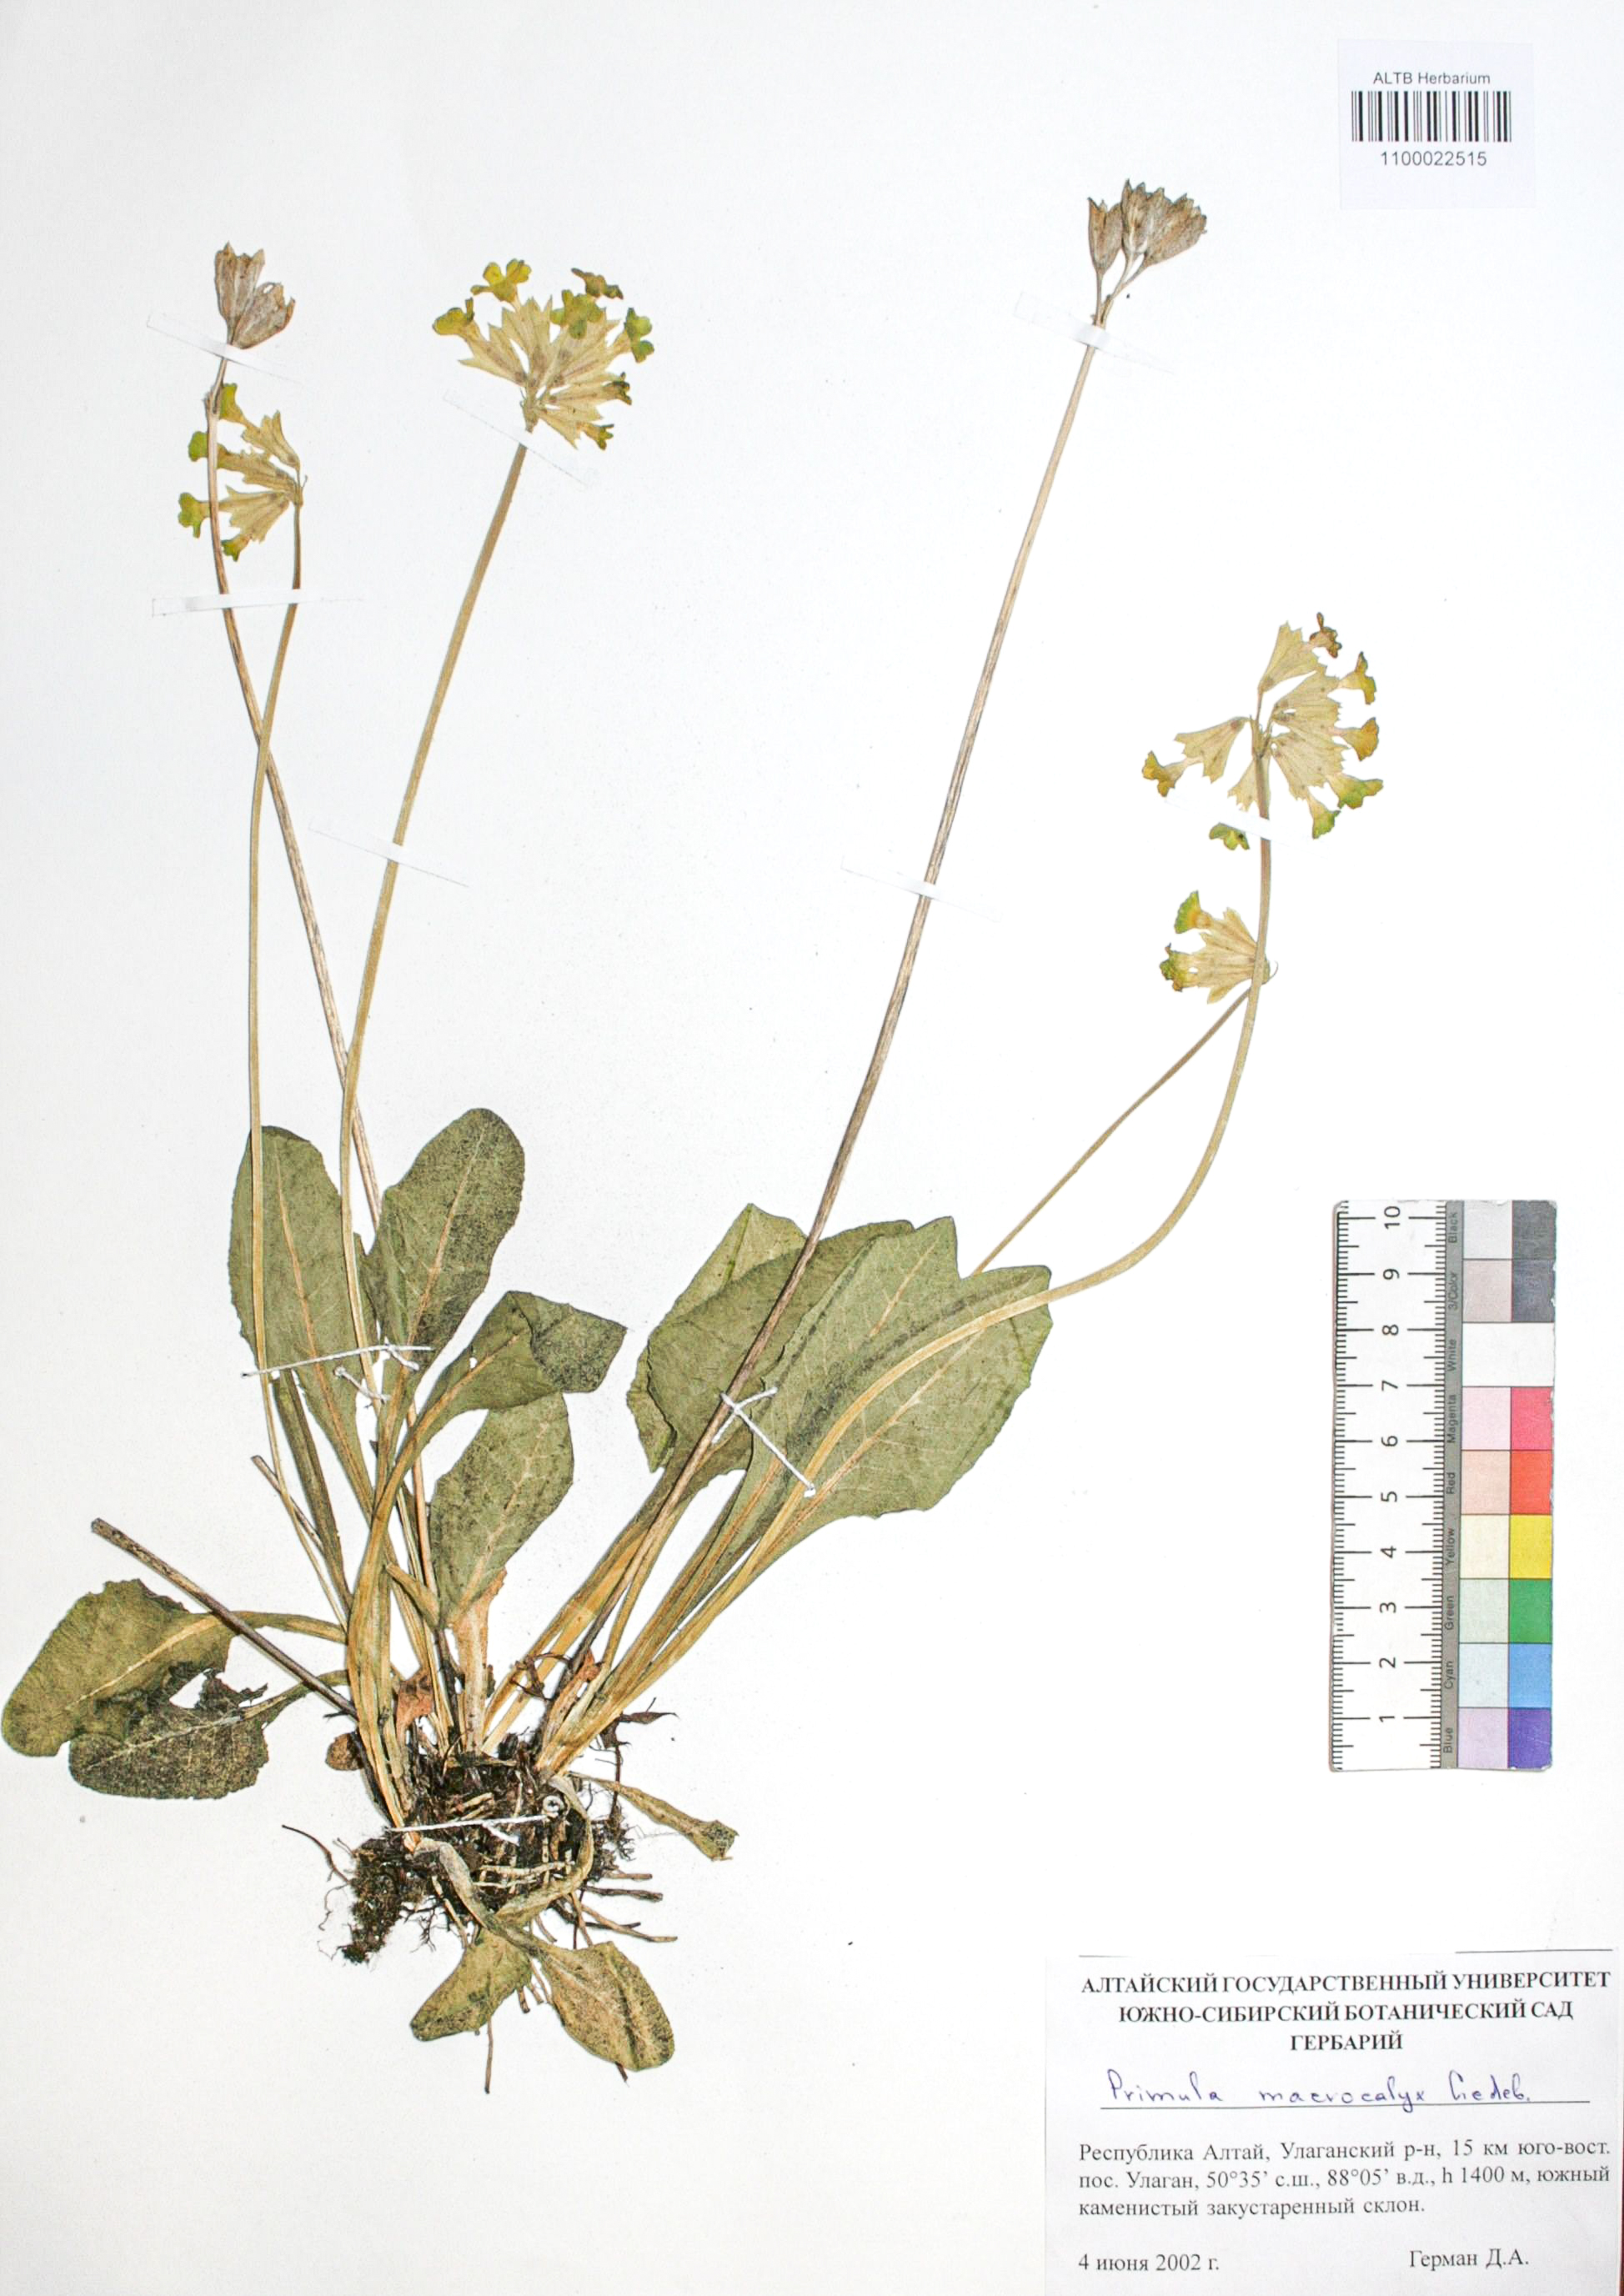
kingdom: Plantae
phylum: Tracheophyta
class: Magnoliopsida
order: Ericales
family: Primulaceae
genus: Primula
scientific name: Primula veris
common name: Cowslip
